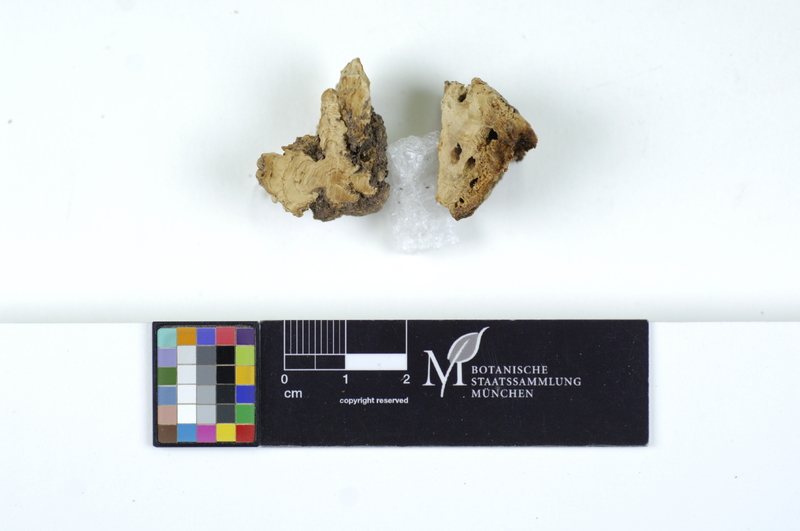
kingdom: Plantae
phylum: Tracheophyta
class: Magnoliopsida
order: Fagales
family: Fagaceae
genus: Fagus
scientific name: Fagus sylvatica
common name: Beech
